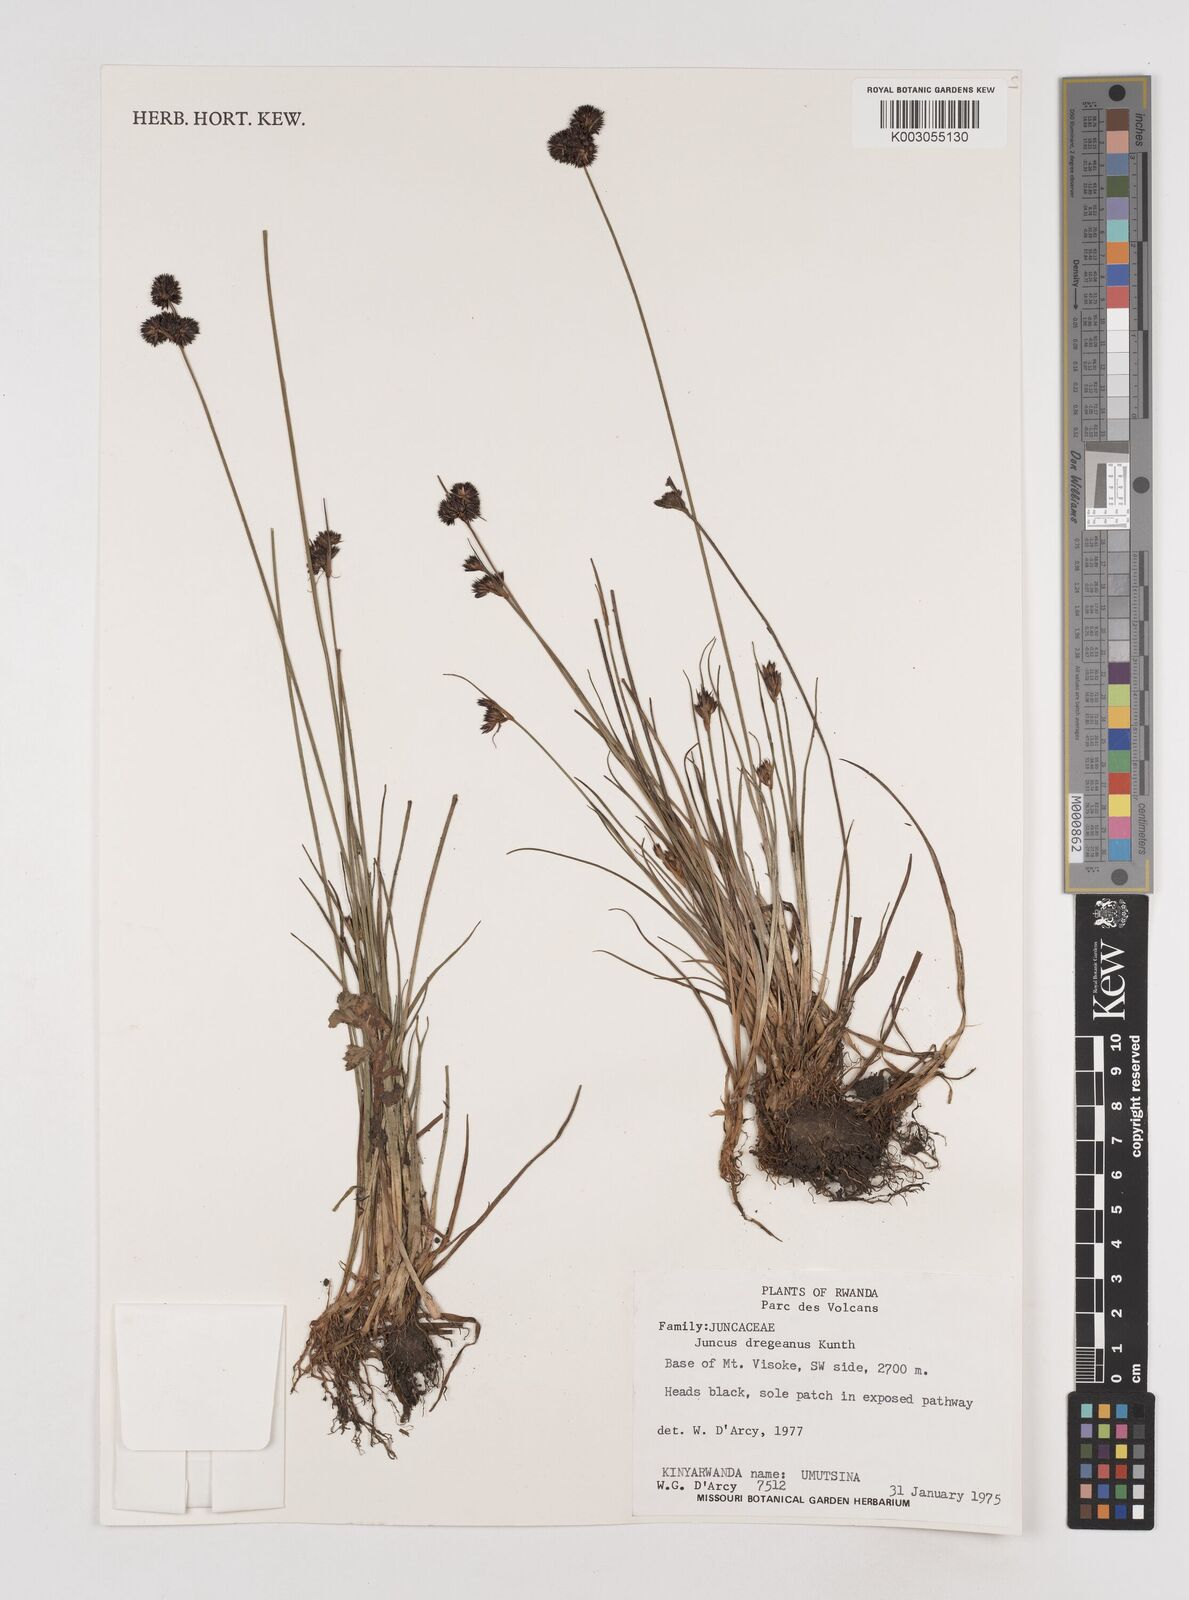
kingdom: Plantae
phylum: Tracheophyta
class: Liliopsida
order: Poales
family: Juncaceae
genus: Juncus
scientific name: Juncus dregeanus
